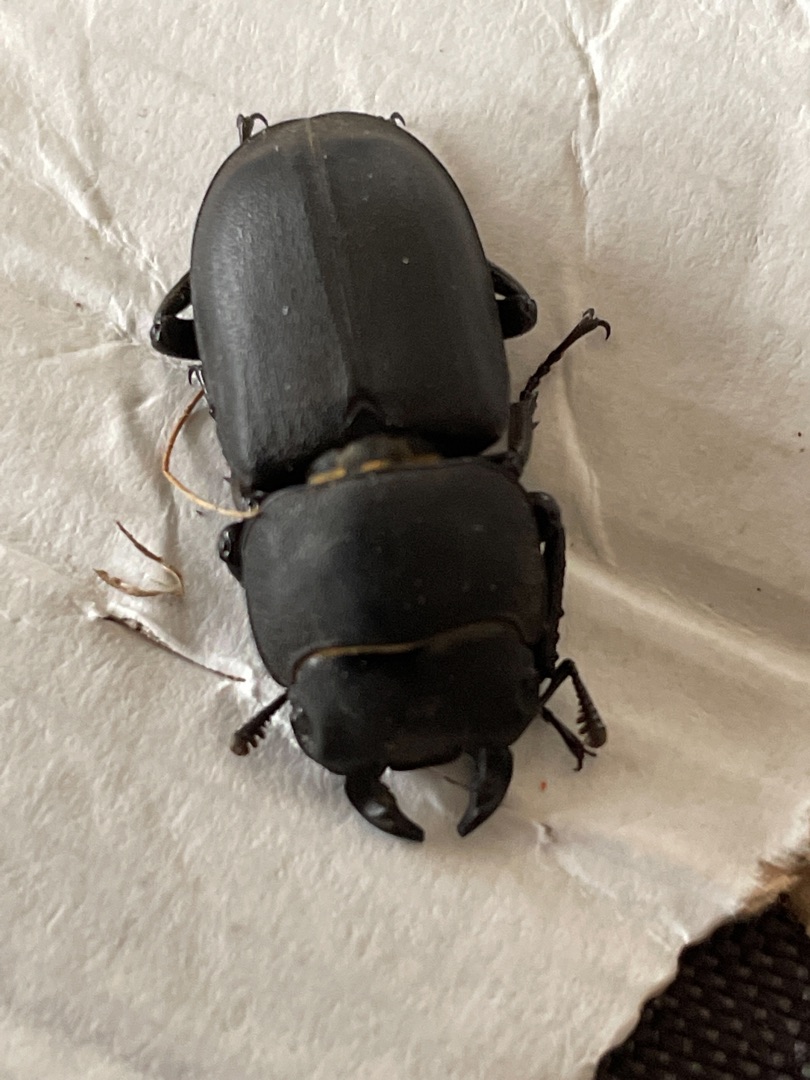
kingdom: Animalia
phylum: Arthropoda
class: Insecta
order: Coleoptera
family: Lucanidae
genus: Dorcus
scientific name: Dorcus parallelipipedus
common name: Bøghjort
